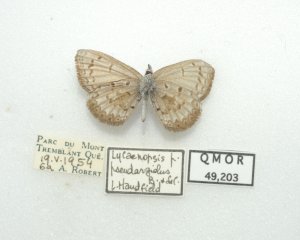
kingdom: Animalia
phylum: Arthropoda
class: Insecta
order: Lepidoptera
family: Lycaenidae
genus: Celastrina
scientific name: Celastrina lucia
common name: Northern Spring Azure
